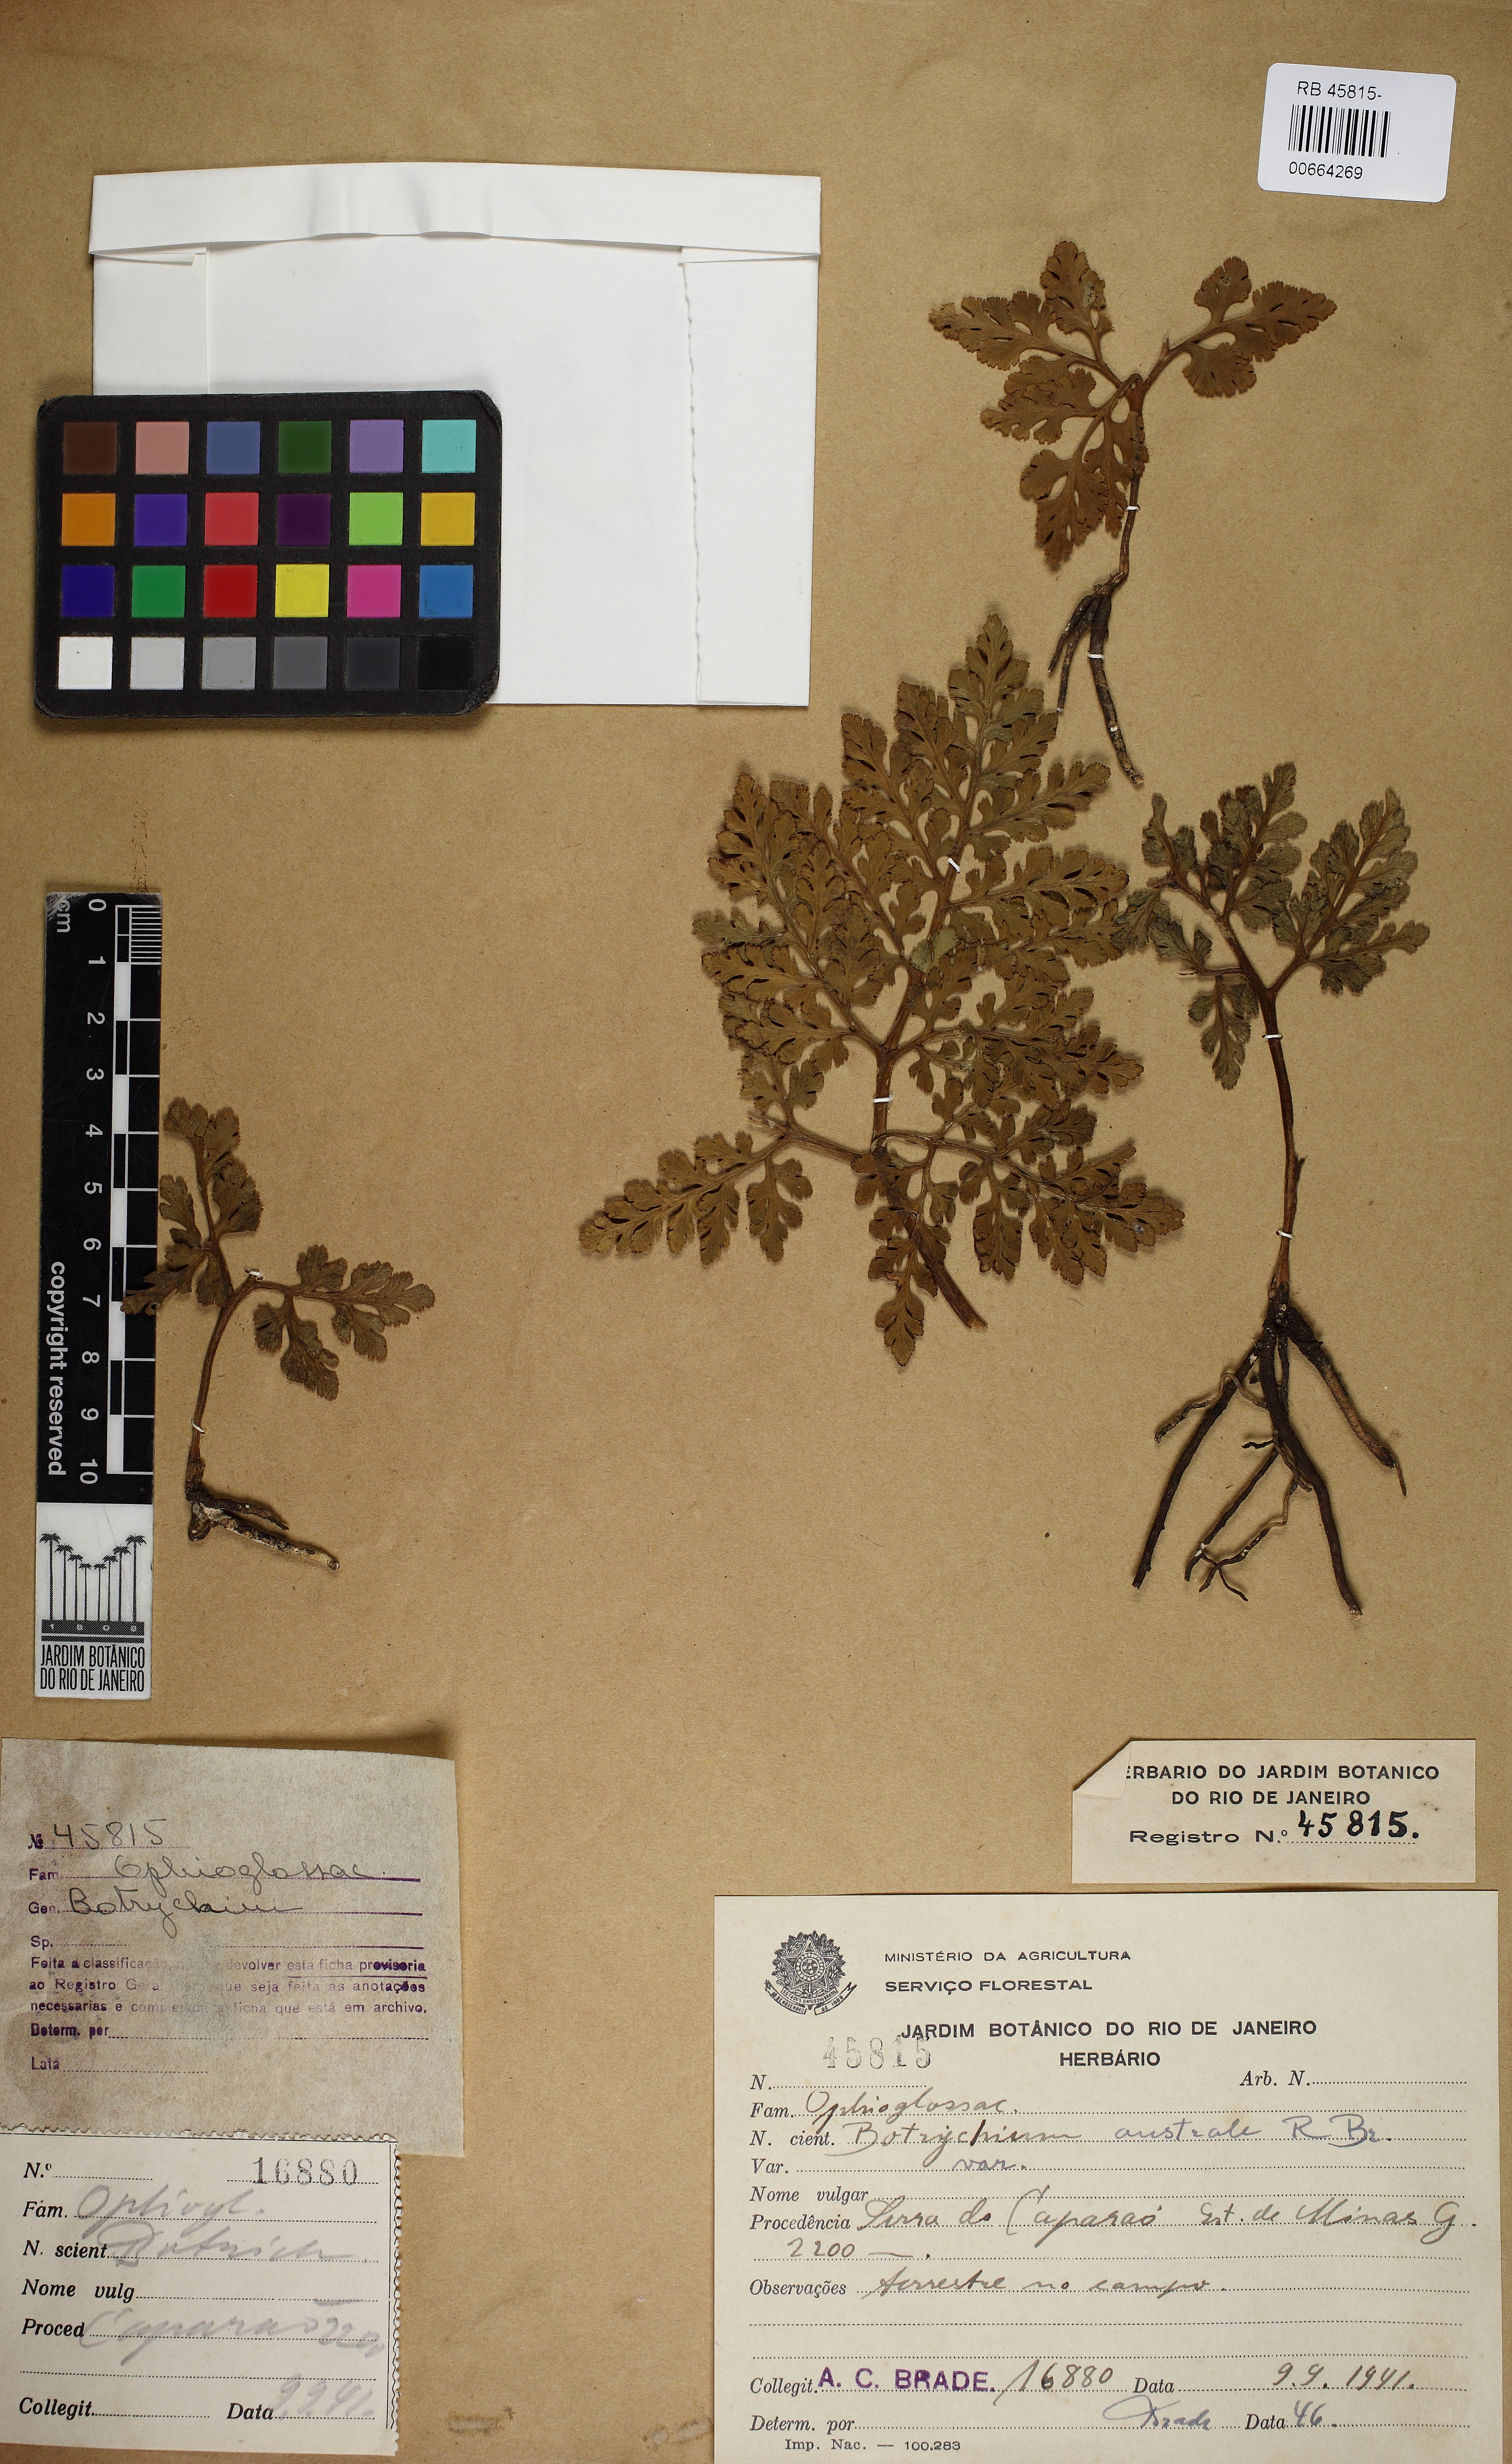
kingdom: Plantae
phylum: Tracheophyta
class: Polypodiopsida
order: Ophioglossales
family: Ophioglossaceae
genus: Sceptridium
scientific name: Sceptridium australe
